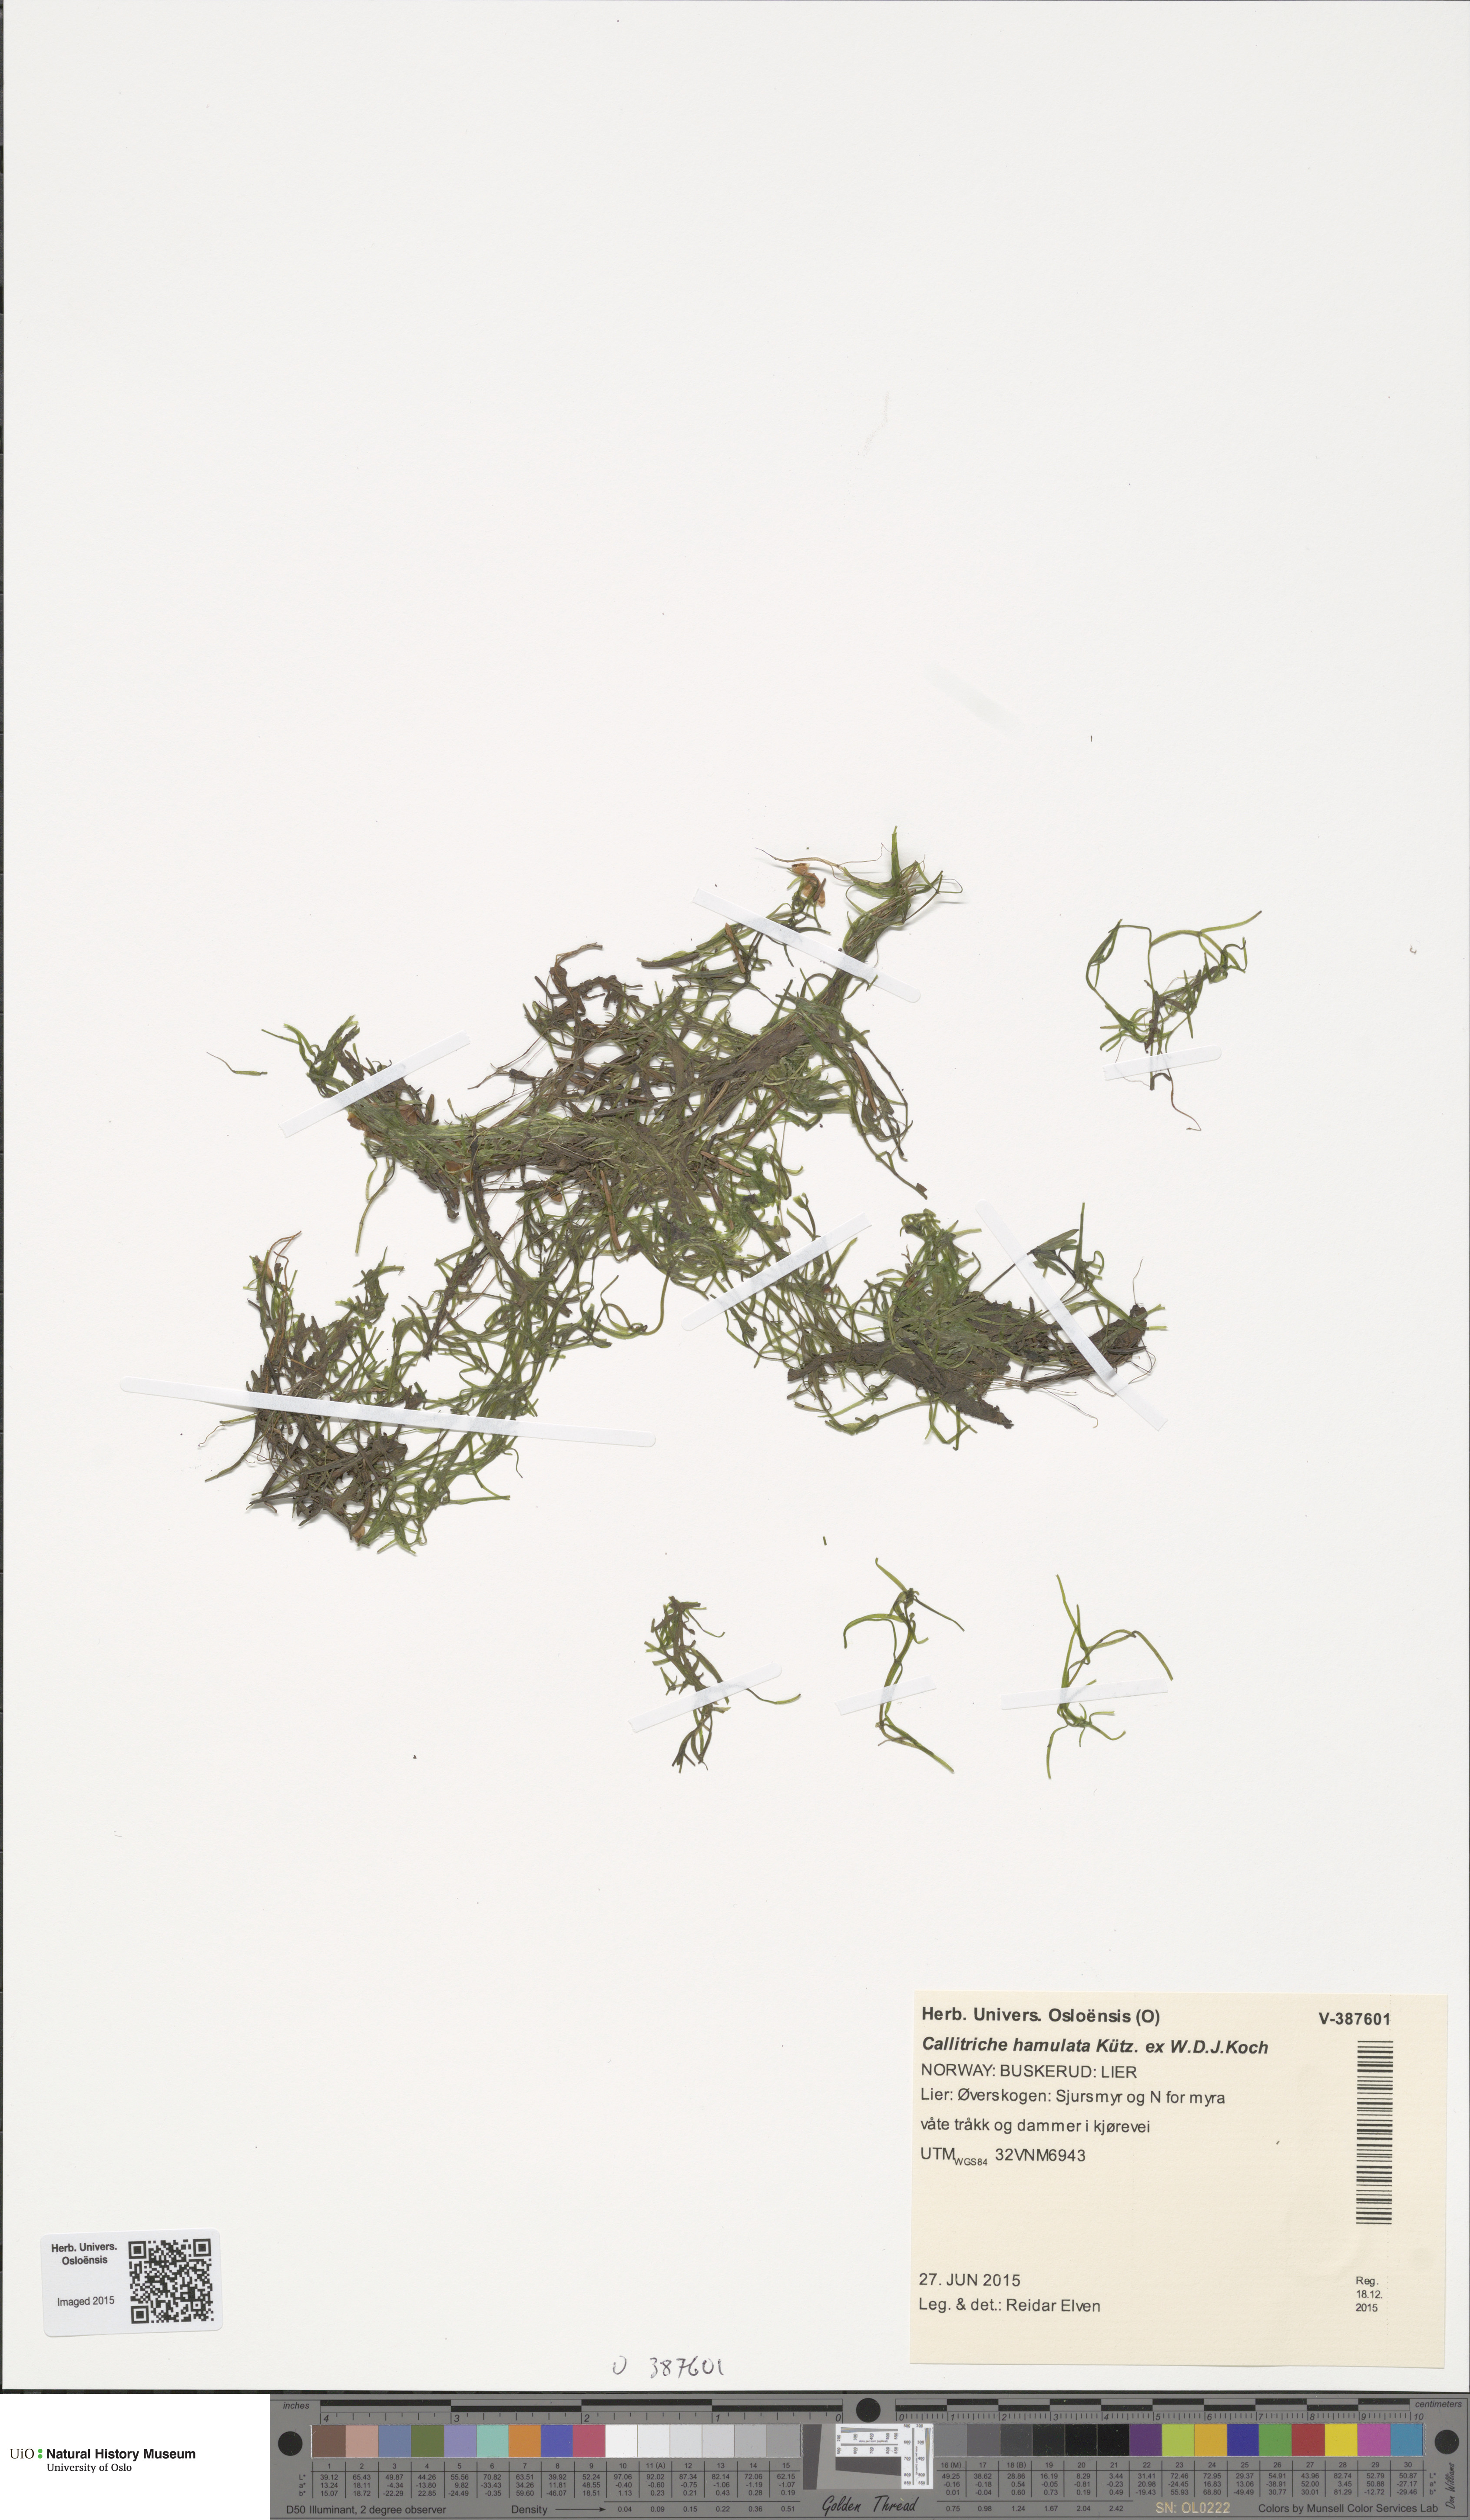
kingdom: Plantae
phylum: Tracheophyta
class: Magnoliopsida
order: Lamiales
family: Plantaginaceae
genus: Callitriche
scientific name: Callitriche hamulata
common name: Intermediate water-starwort
